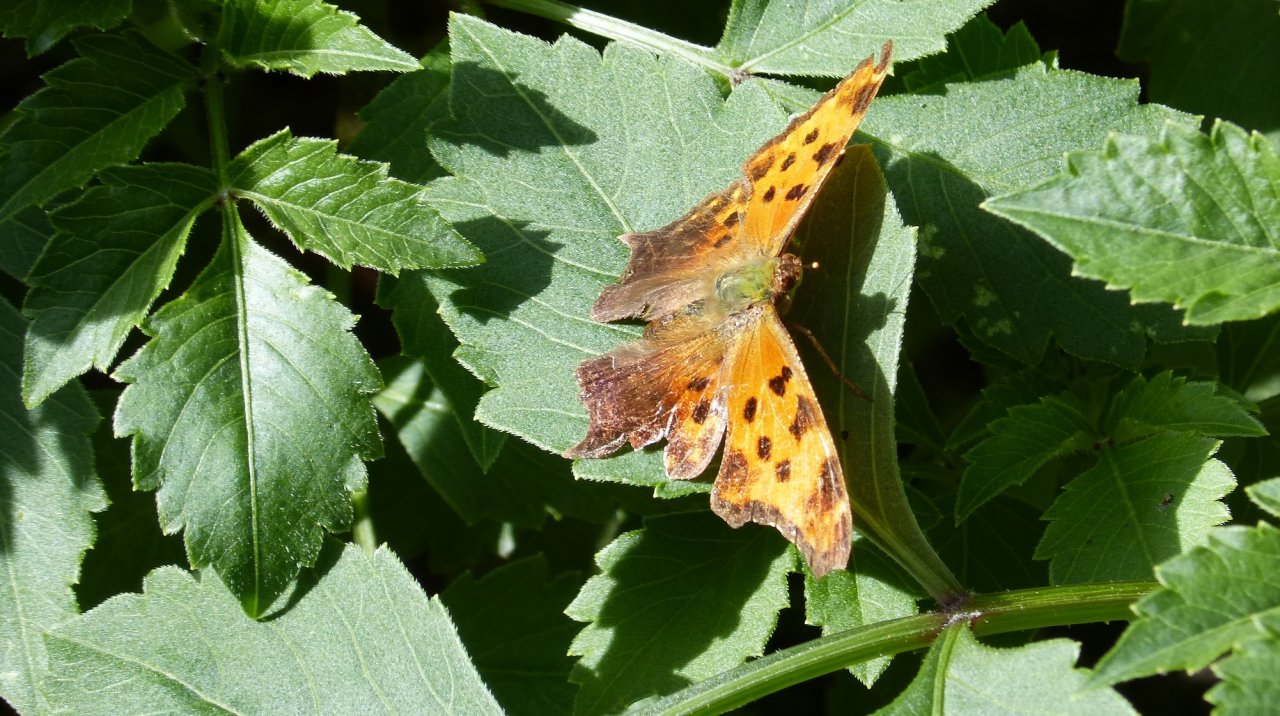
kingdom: Animalia
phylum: Arthropoda
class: Insecta
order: Lepidoptera
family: Nymphalidae
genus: Polygonia
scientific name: Polygonia comma
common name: Eastern Comma
